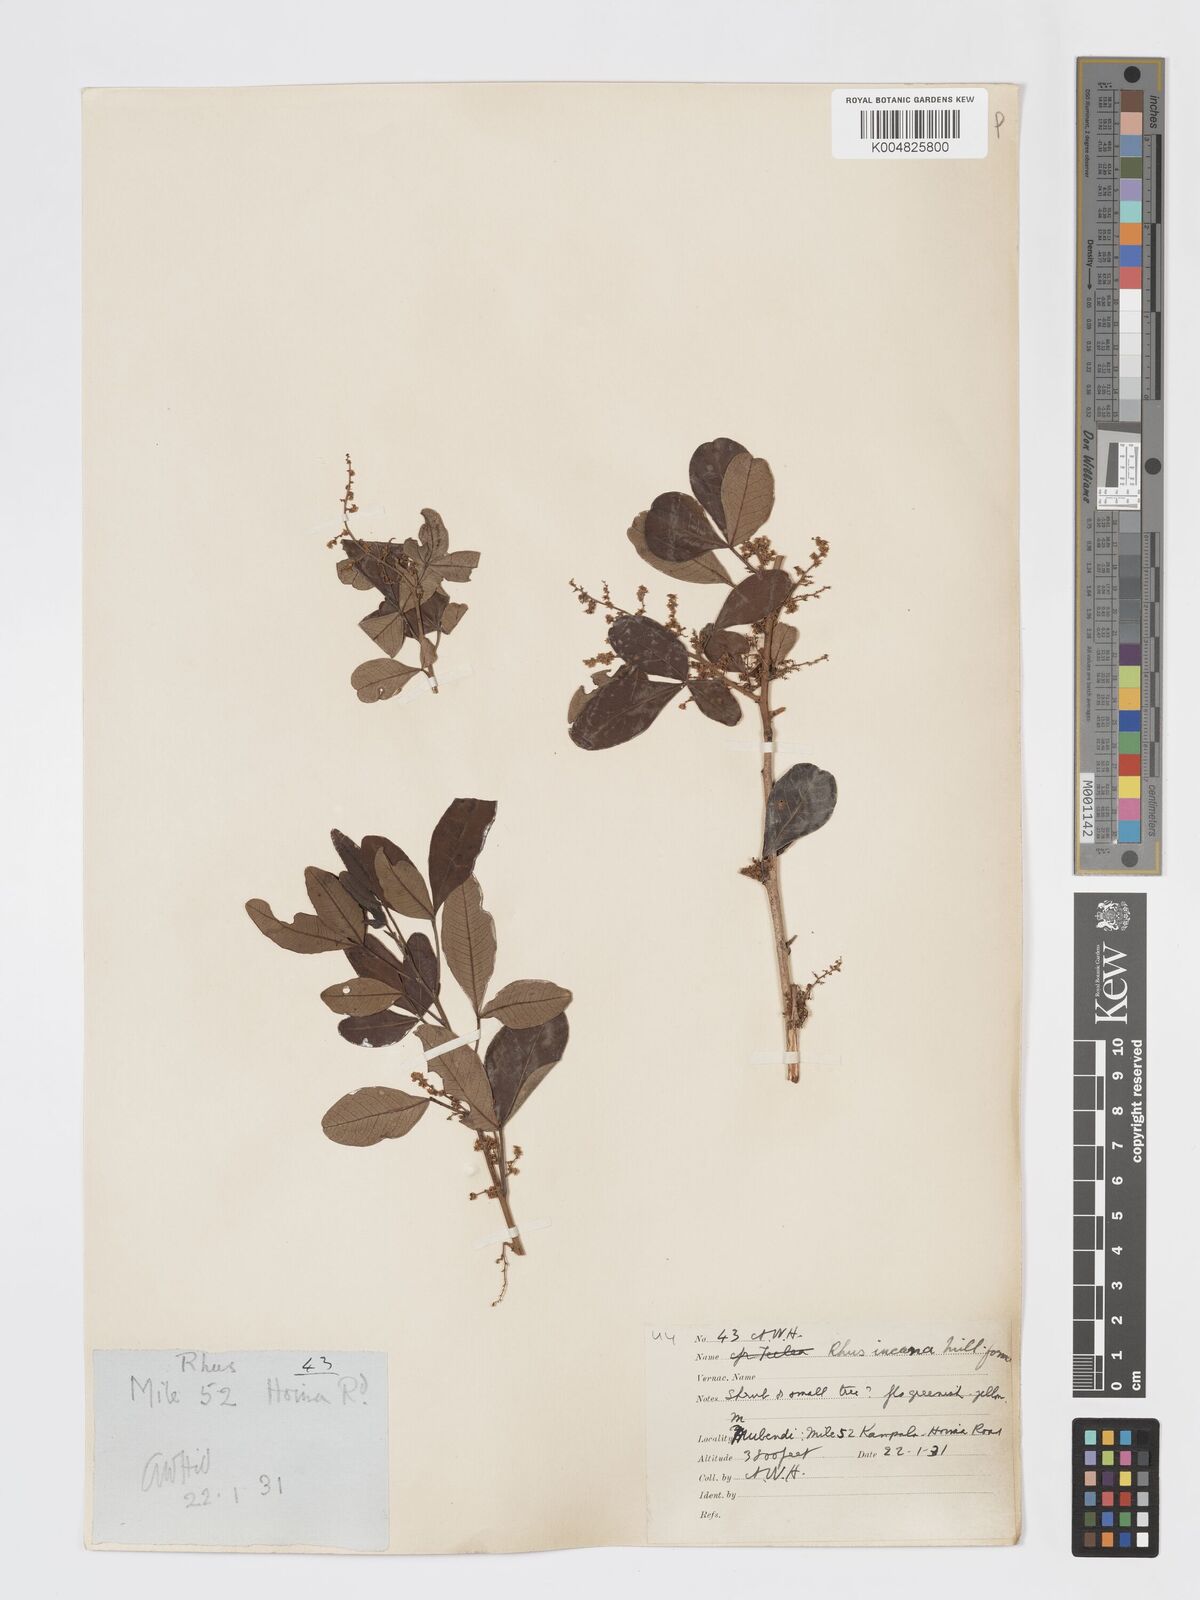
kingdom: Plantae
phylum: Tracheophyta
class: Magnoliopsida
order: Sapindales
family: Anacardiaceae
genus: Searsia
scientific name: Searsia natalensis
